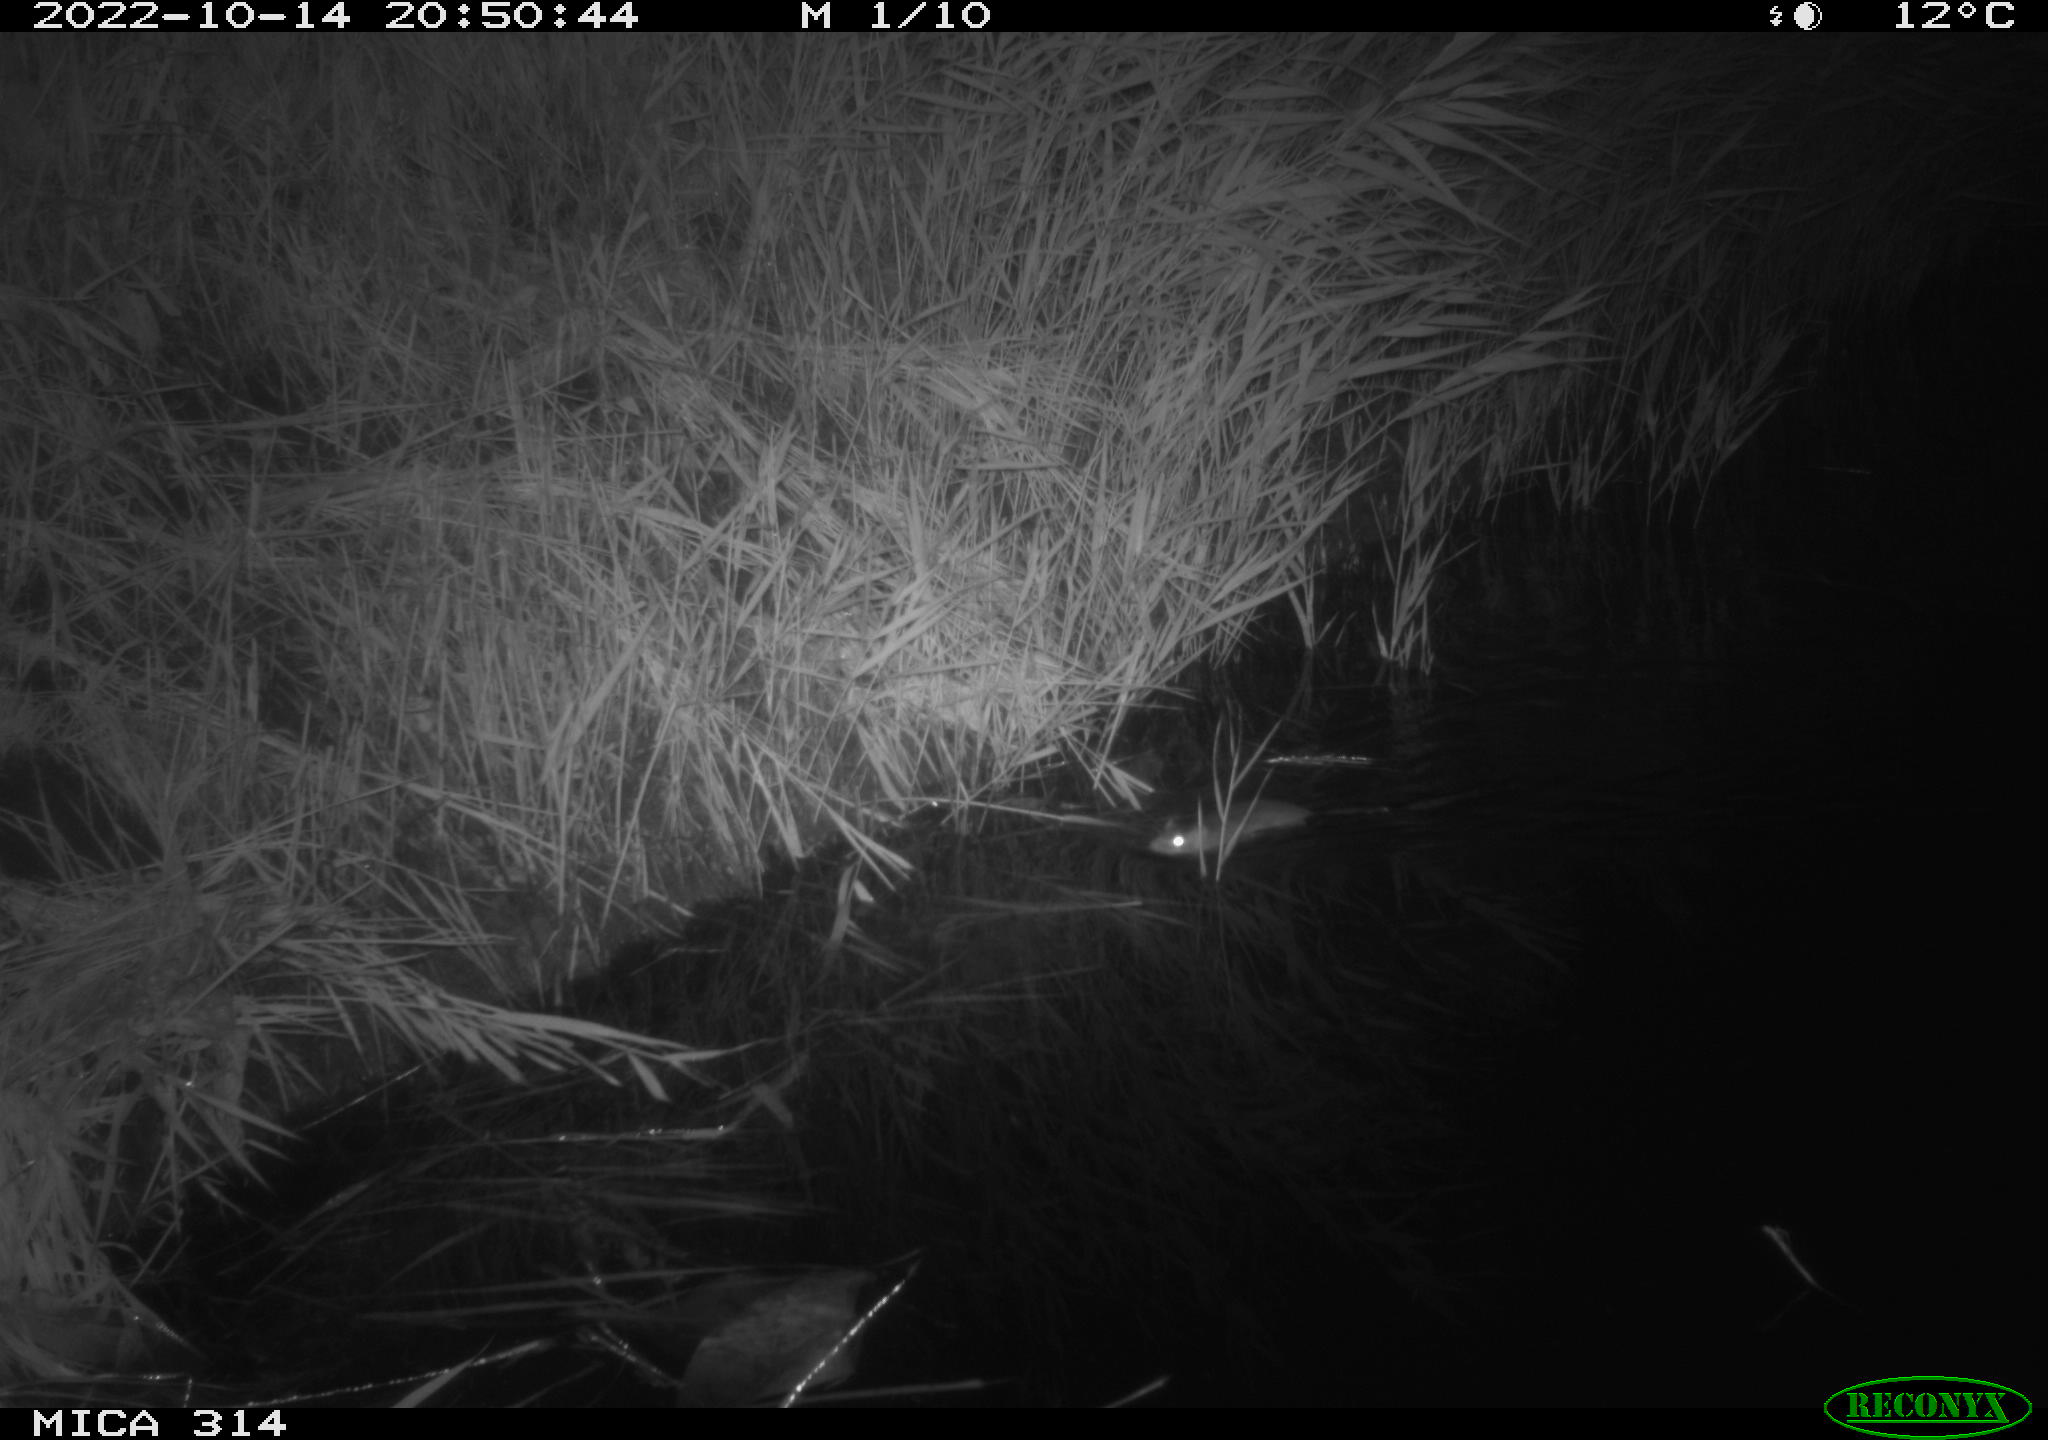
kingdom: Animalia
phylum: Chordata
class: Mammalia
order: Rodentia
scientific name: Rodentia
